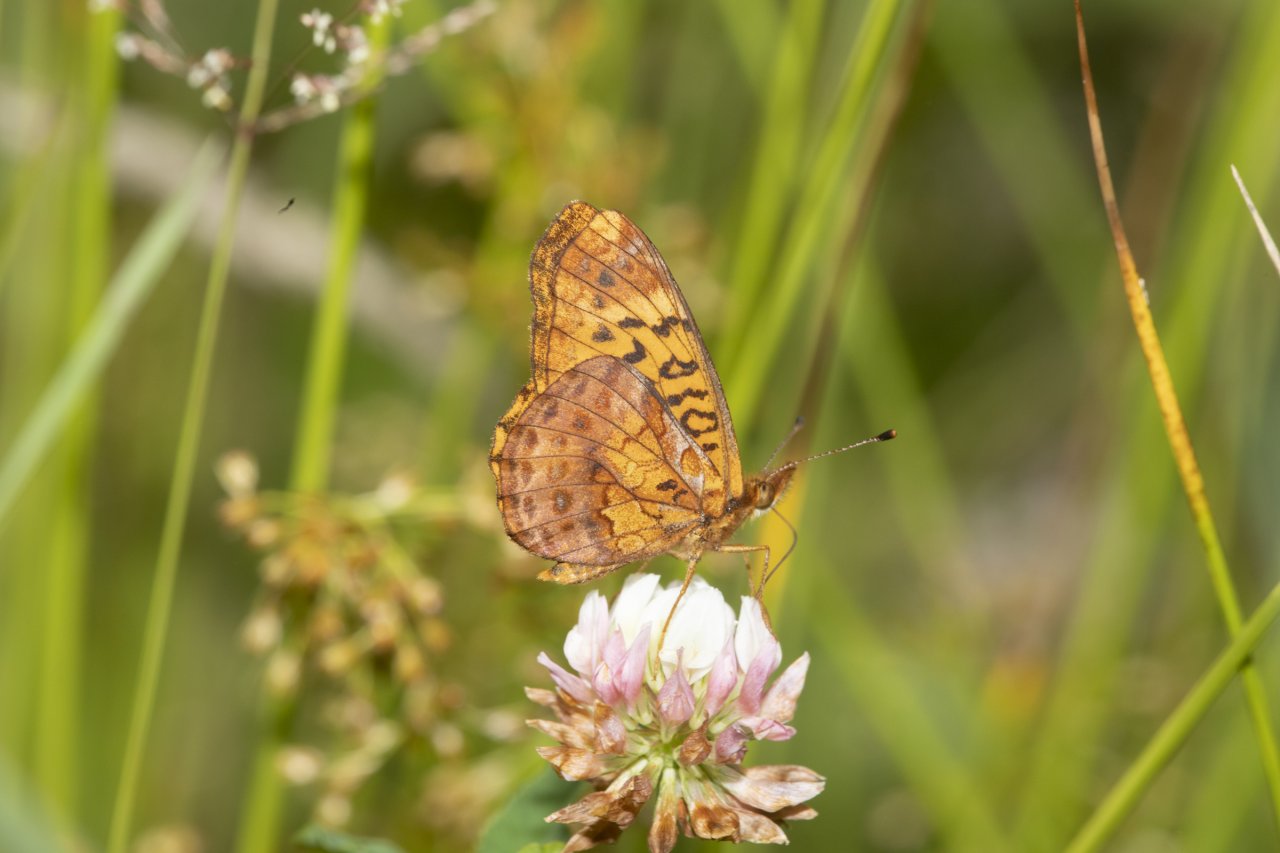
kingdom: Animalia
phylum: Arthropoda
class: Insecta
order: Lepidoptera
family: Nymphalidae
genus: Clossiana
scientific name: Clossiana toddi
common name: Meadow Fritillary
